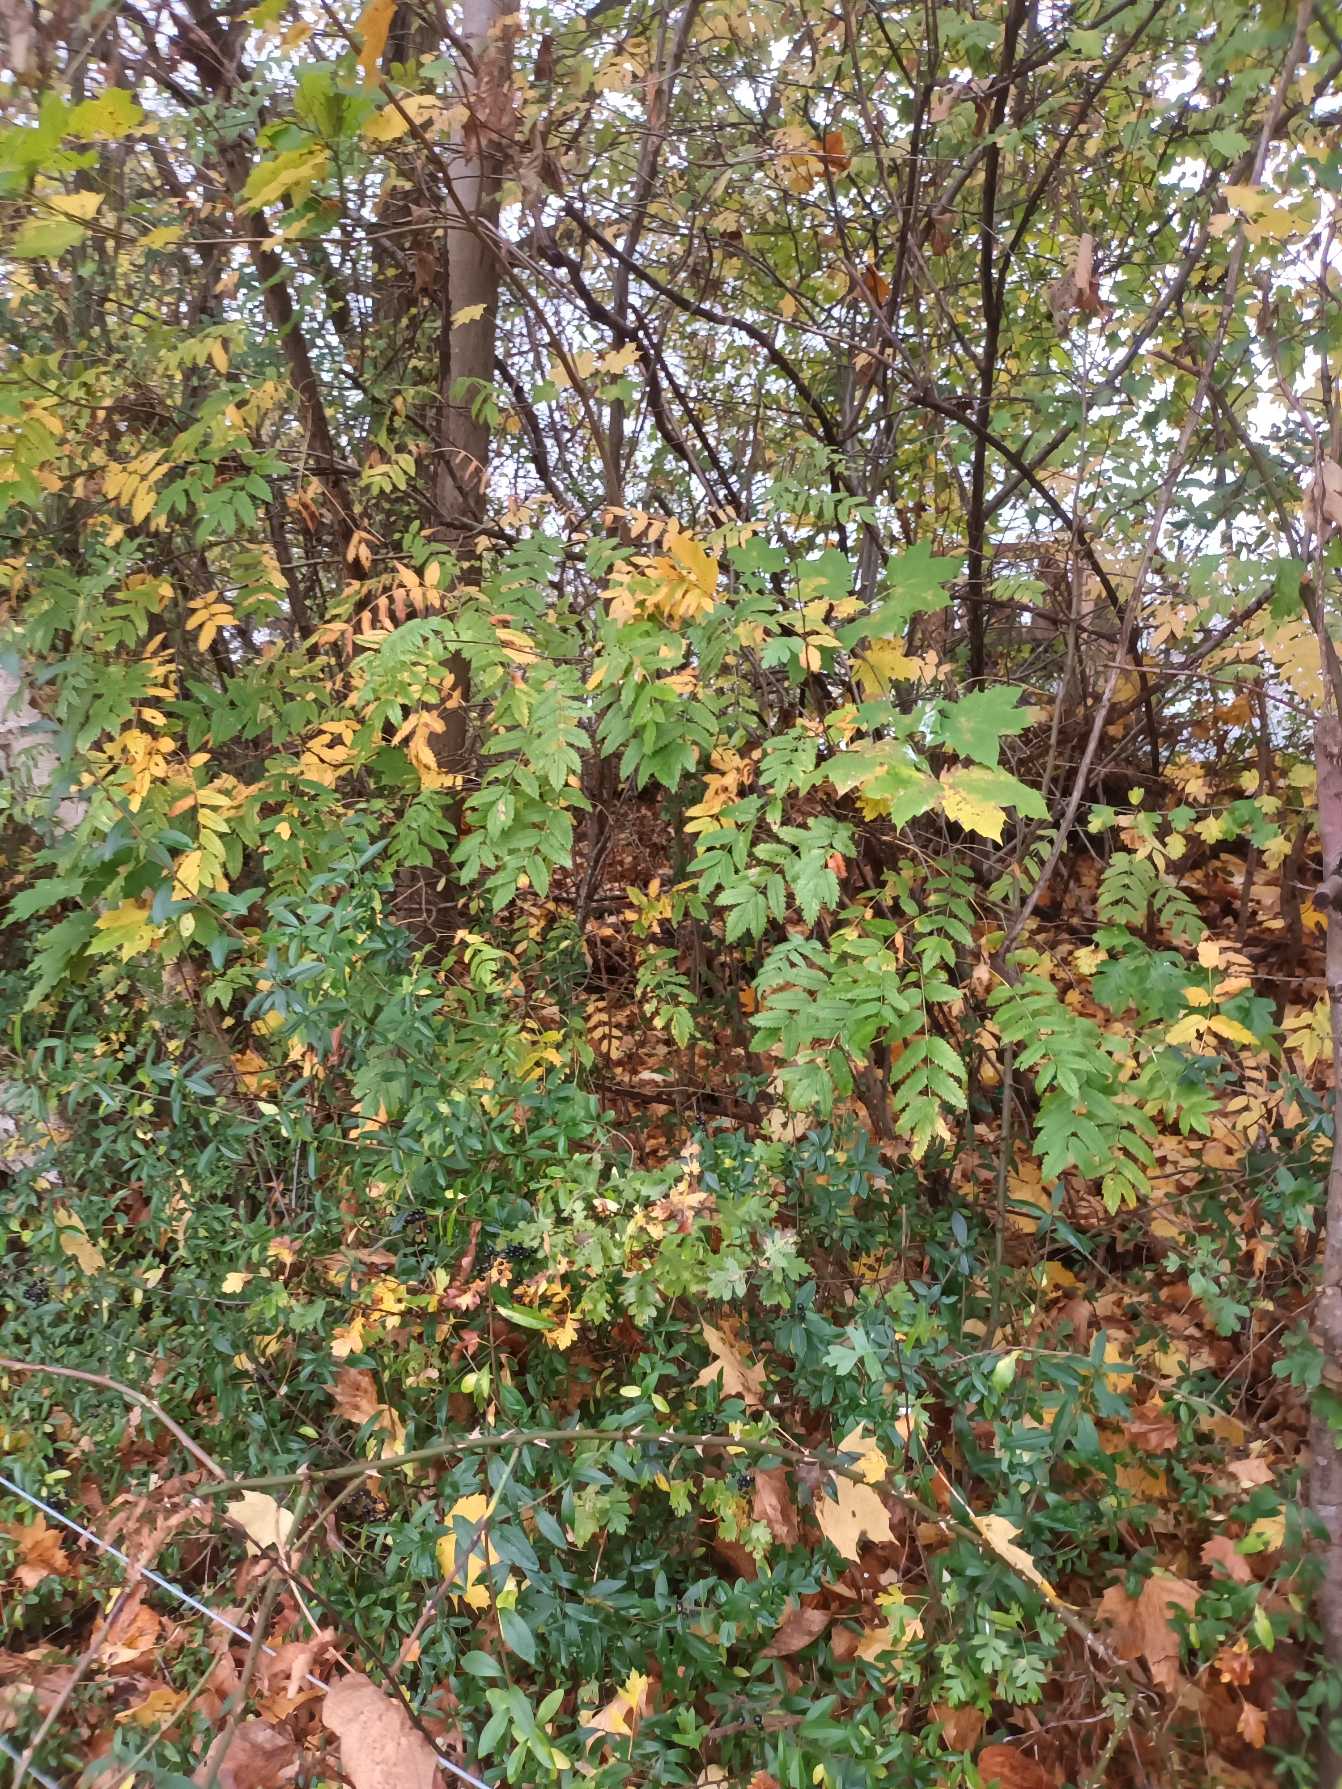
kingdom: Plantae
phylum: Tracheophyta
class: Magnoliopsida
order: Rosales
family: Rosaceae
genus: Sorbus
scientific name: Sorbus aucuparia
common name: Almindelig røn
